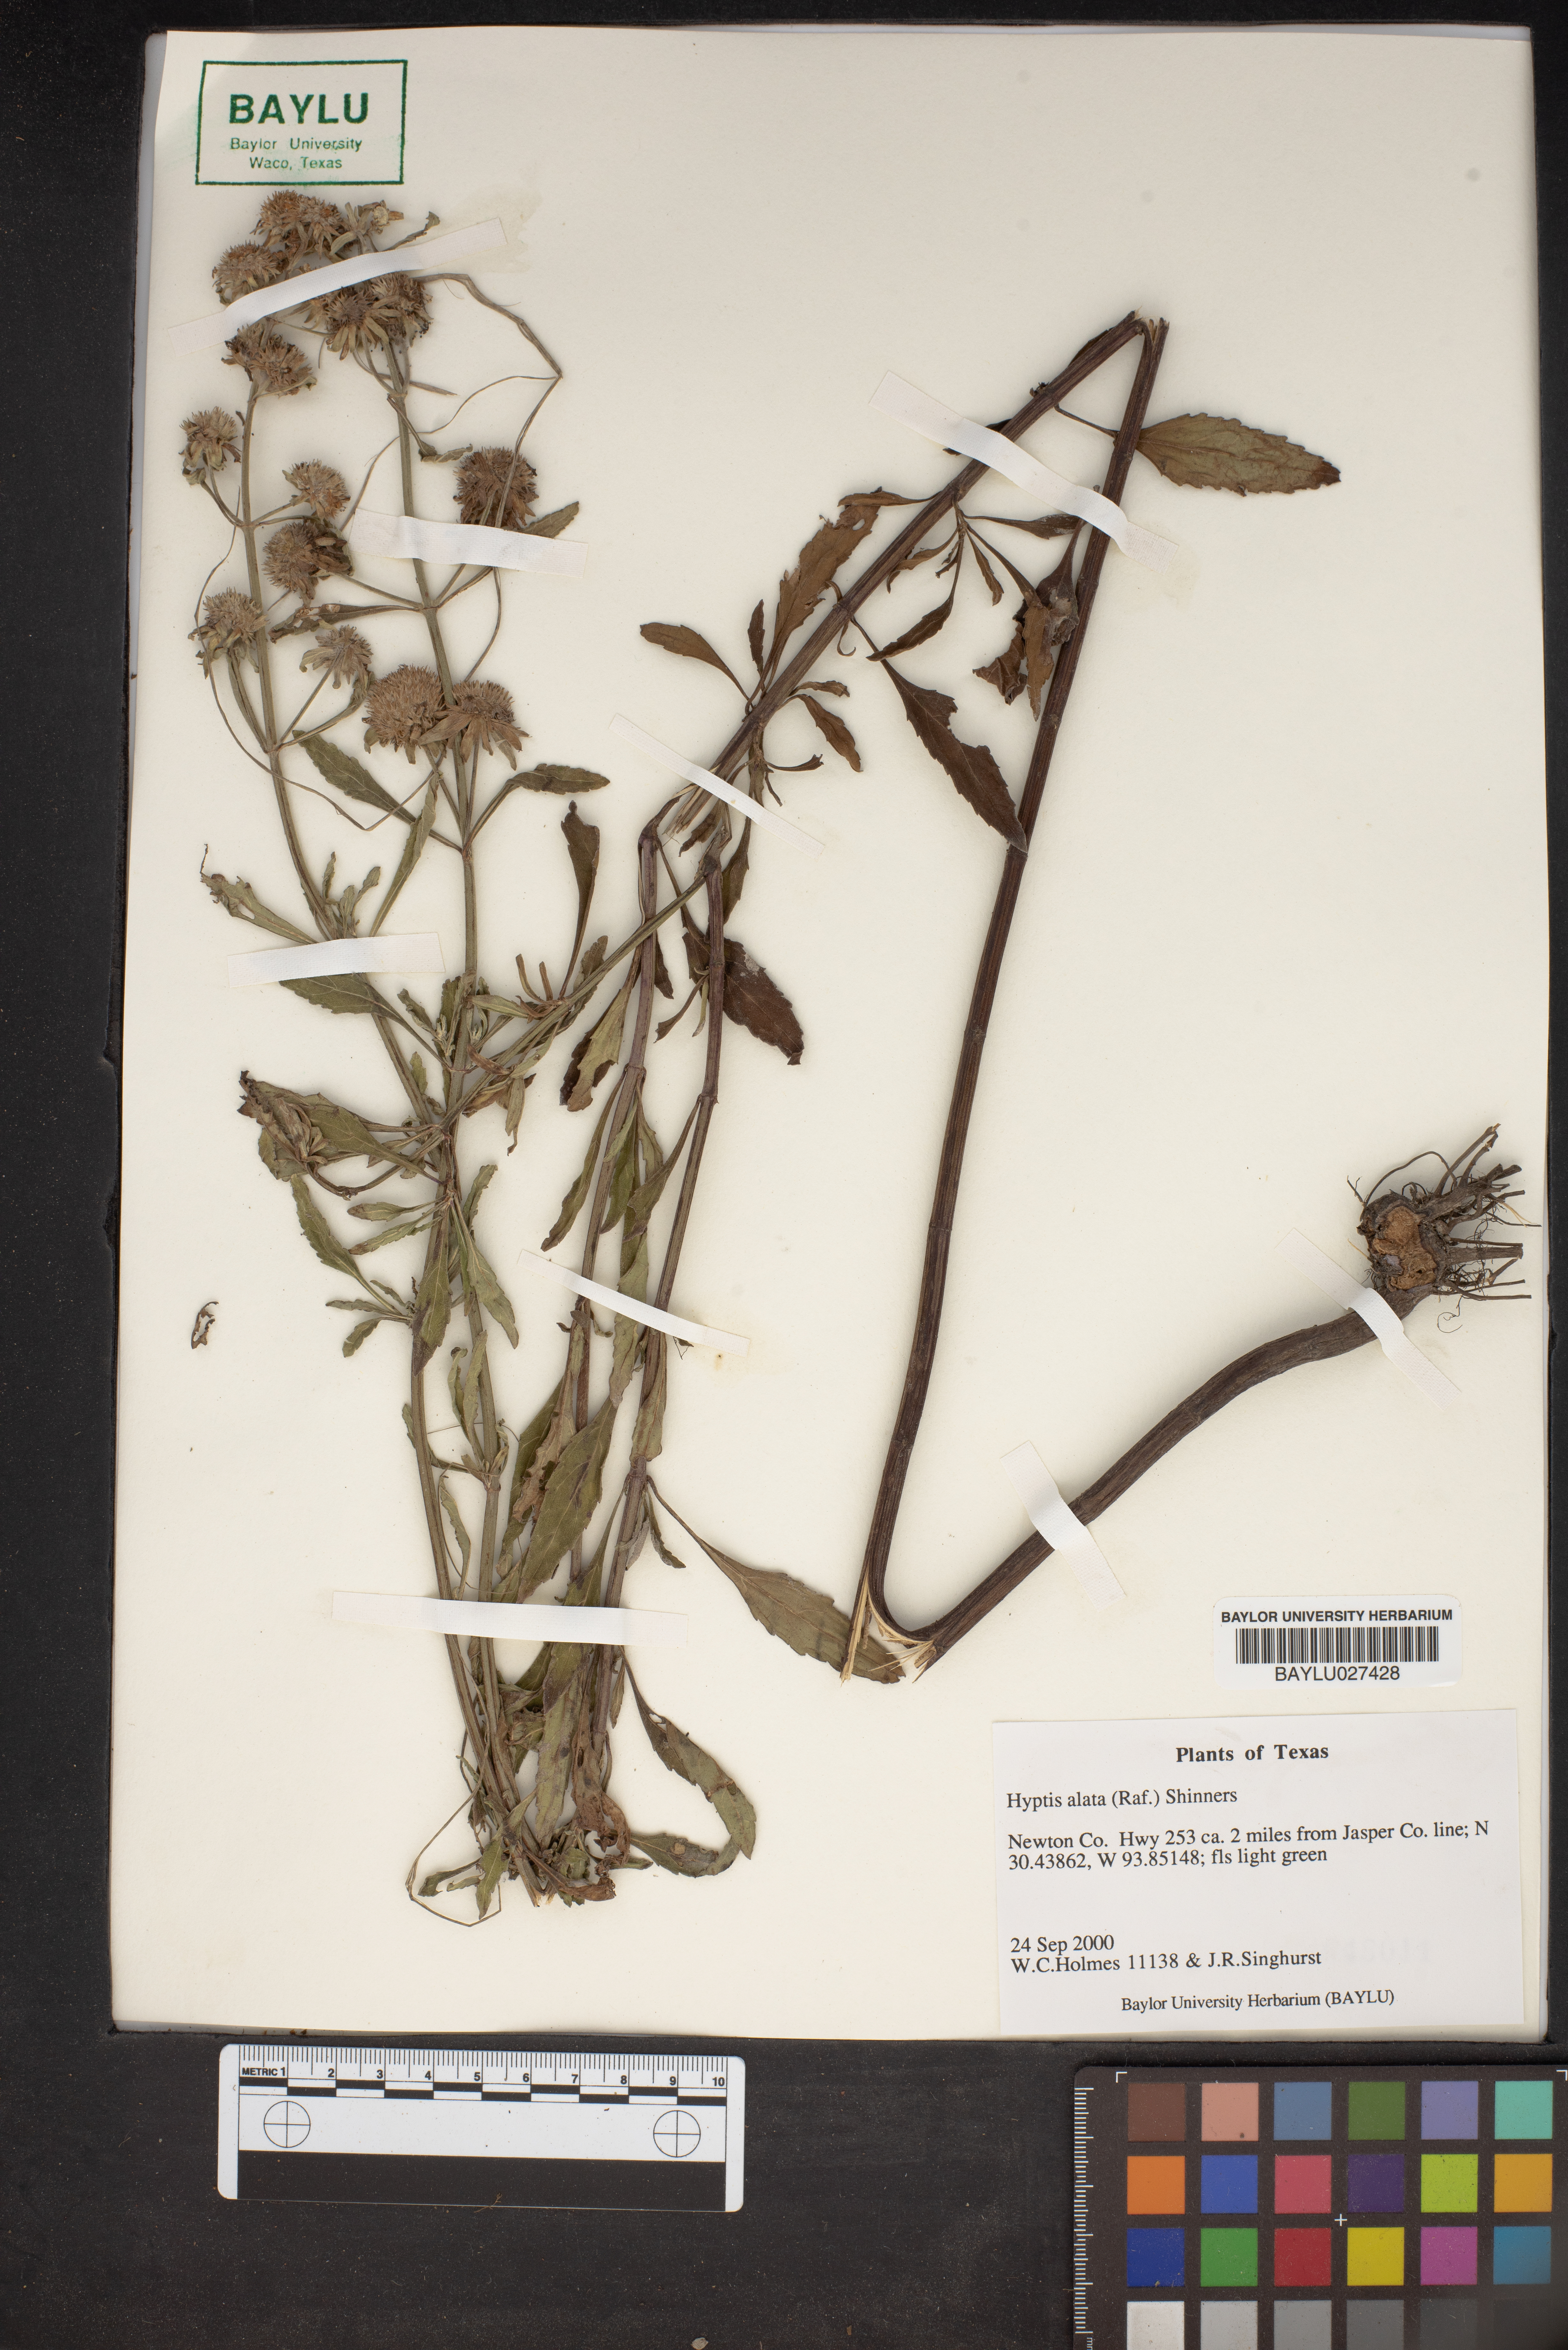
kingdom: Plantae
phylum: Tracheophyta
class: Magnoliopsida
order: Lamiales
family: Lamiaceae
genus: Hyptis
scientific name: Hyptis alata
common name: Cluster bush-mint
